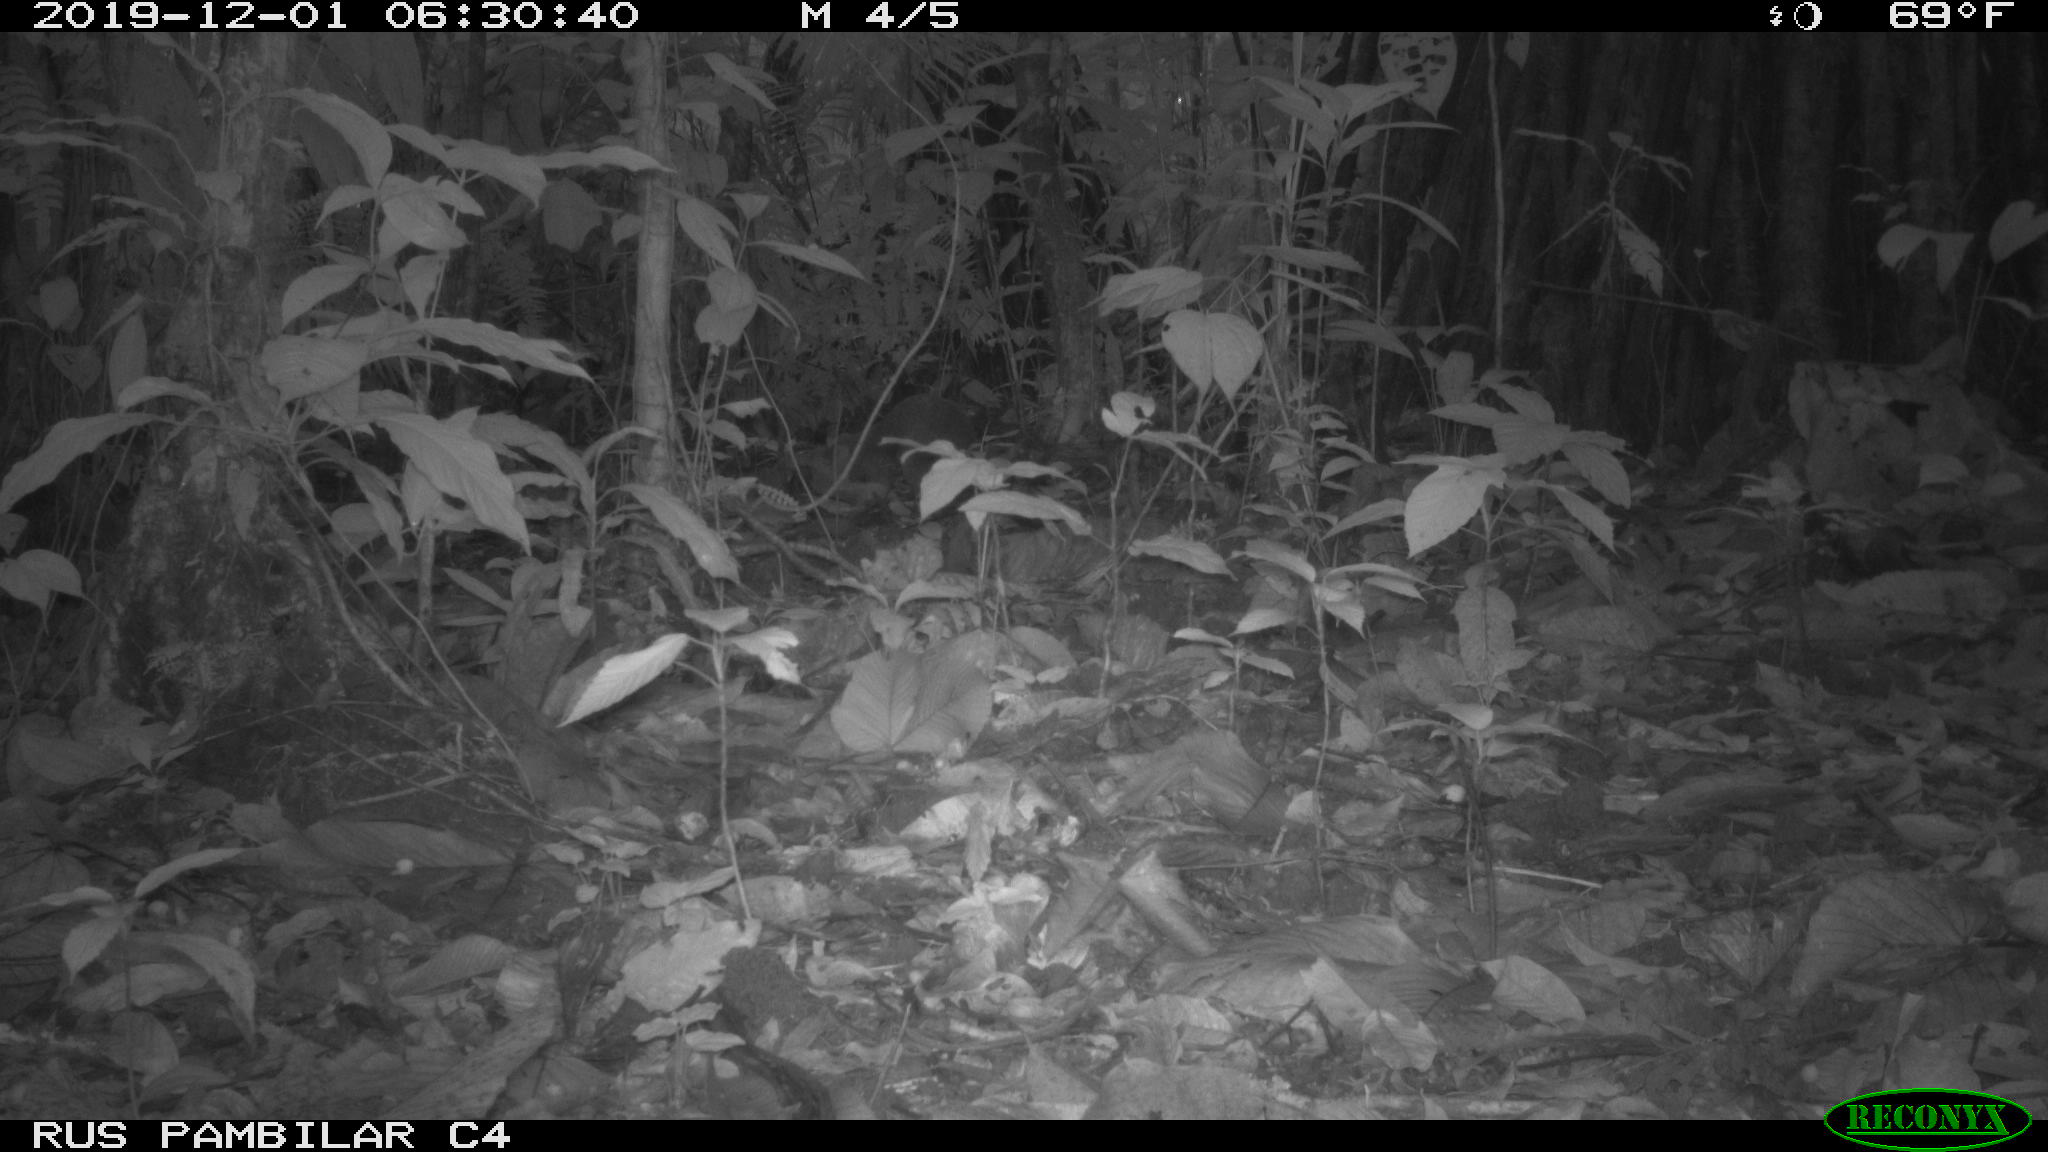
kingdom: Animalia
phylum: Chordata
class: Mammalia
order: Rodentia
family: Dasyproctidae
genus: Dasyprocta
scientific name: Dasyprocta punctata
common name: Central american agouti
